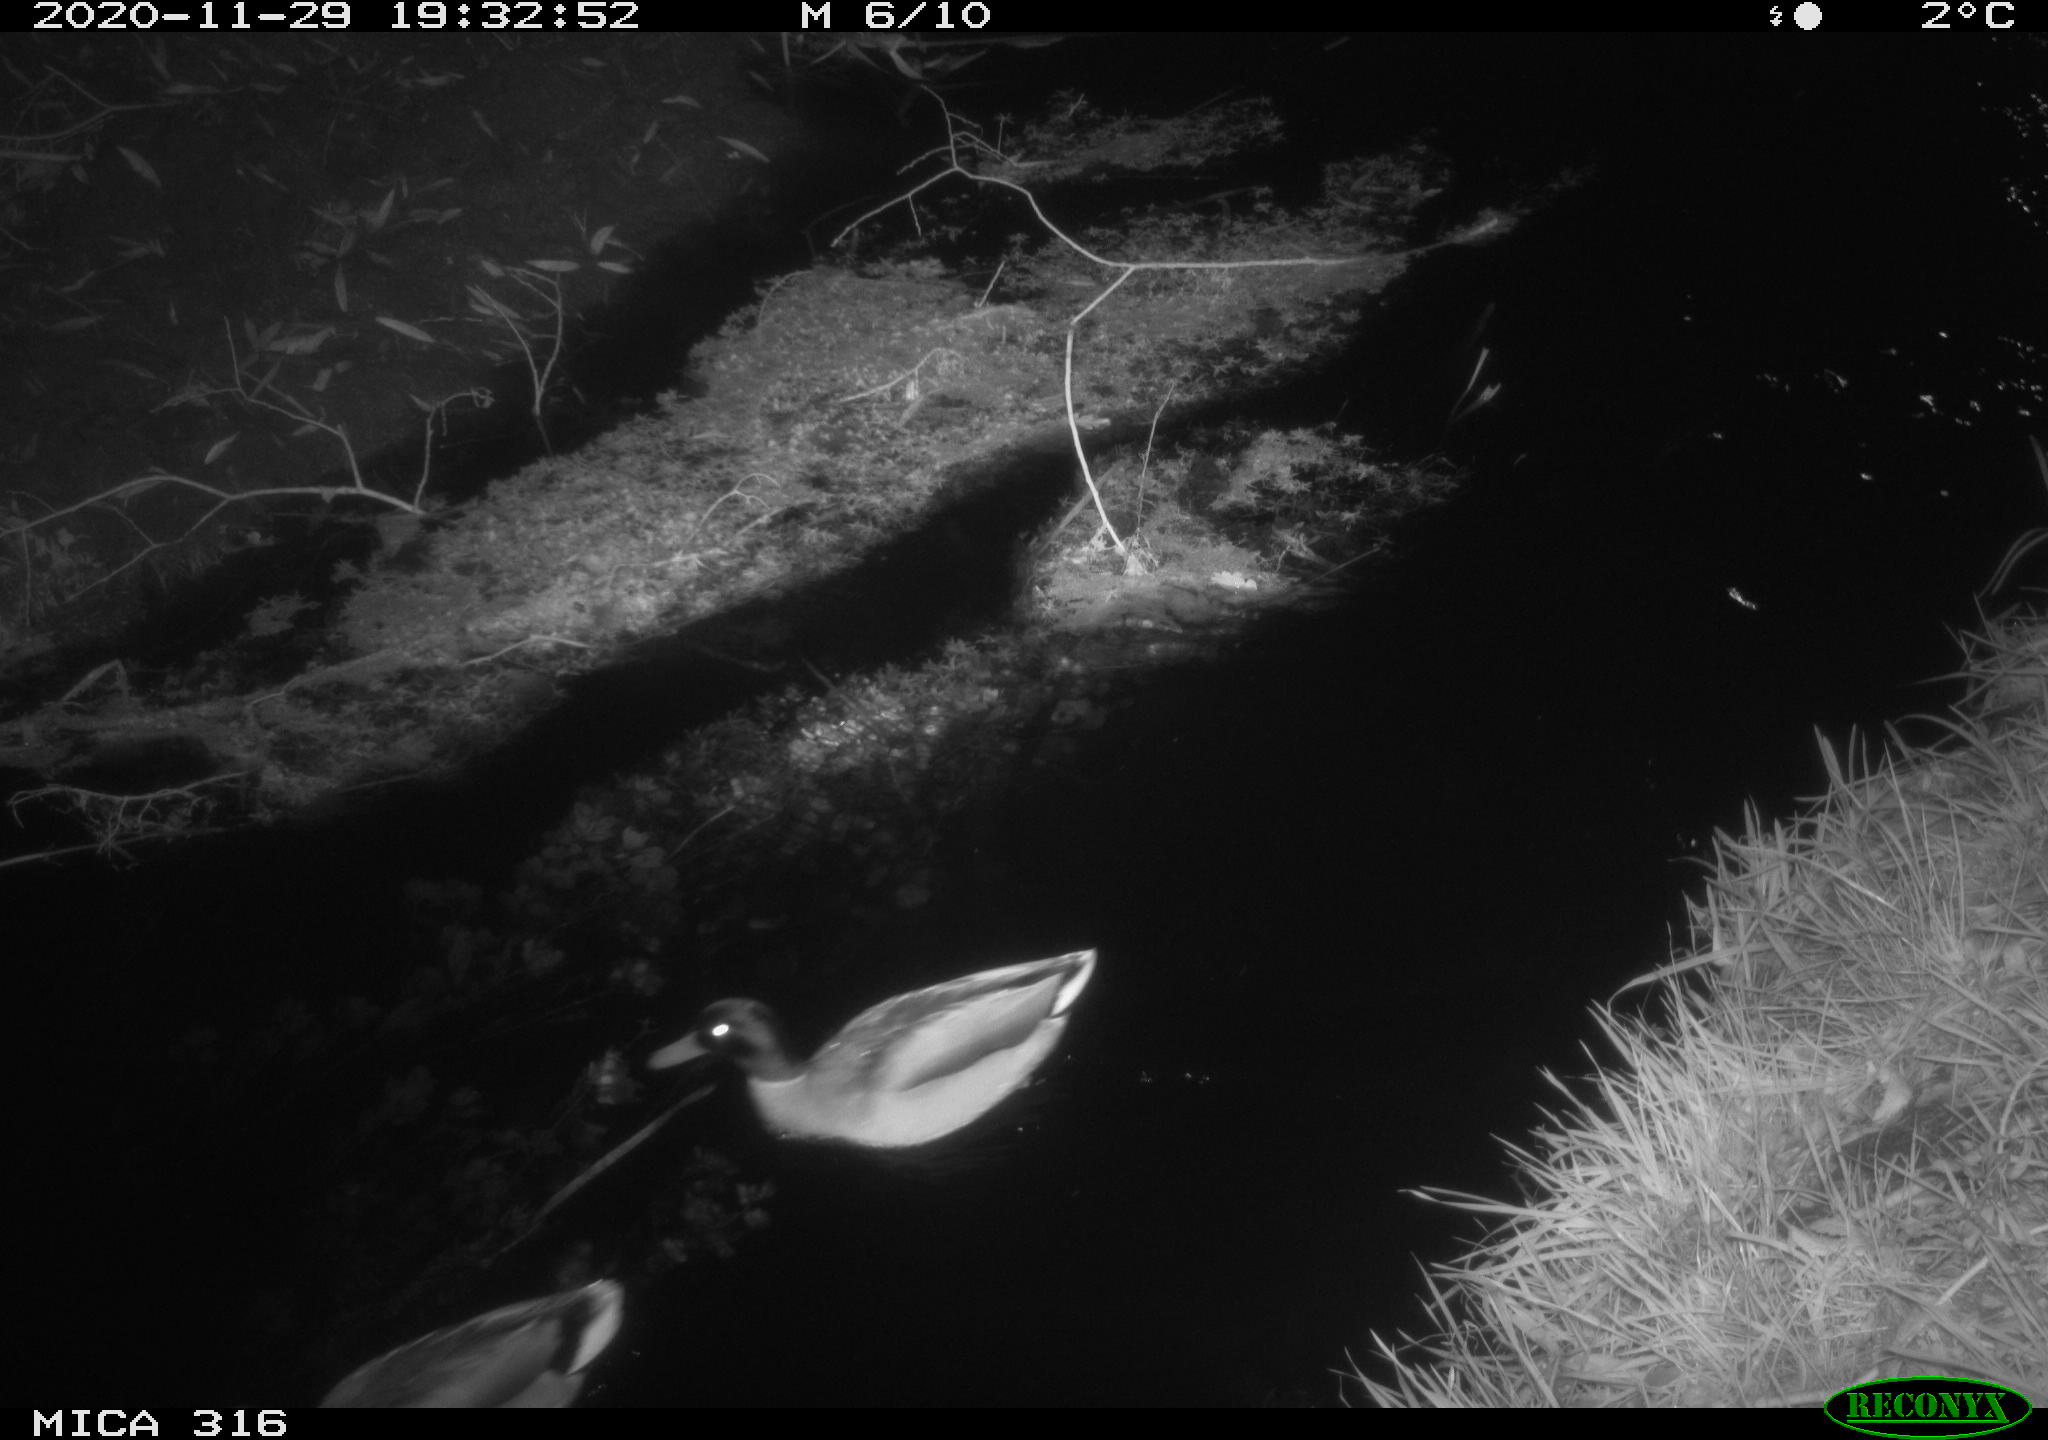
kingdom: Animalia
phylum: Chordata
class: Aves
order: Anseriformes
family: Anatidae
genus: Anas
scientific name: Anas platyrhynchos
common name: Mallard
